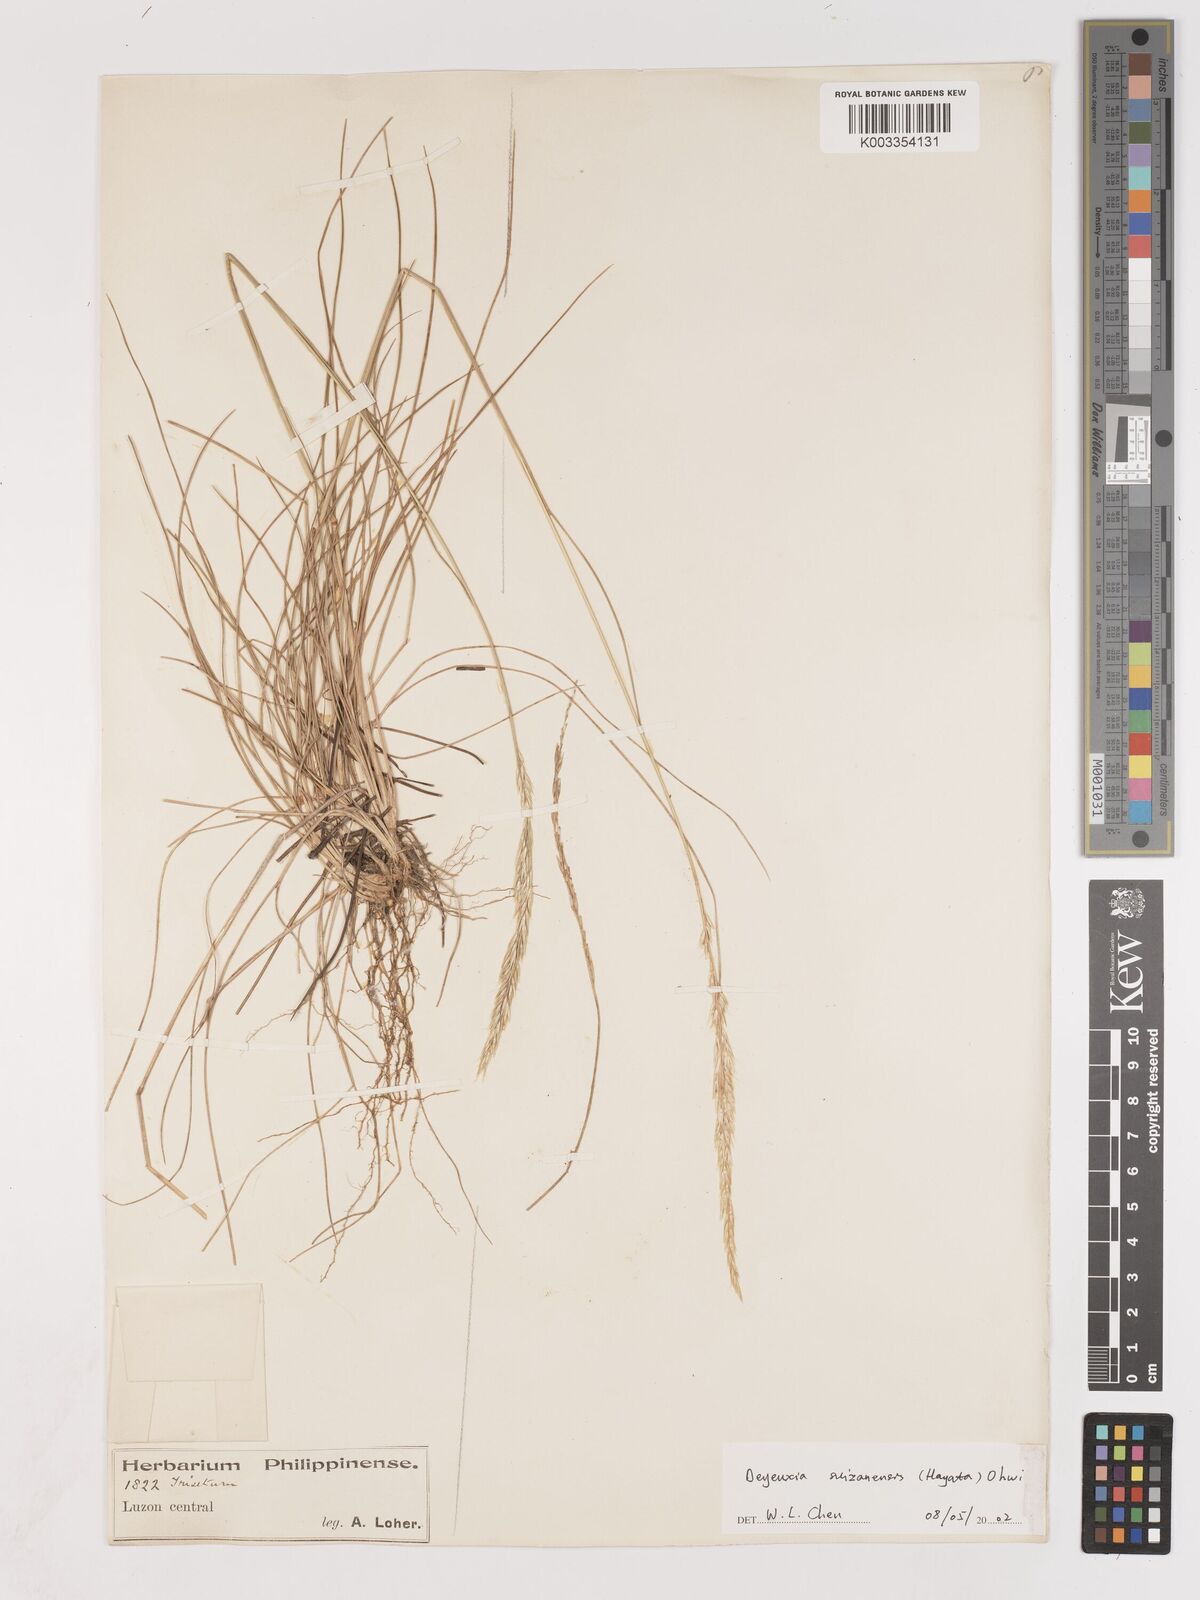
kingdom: Plantae
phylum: Tracheophyta
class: Liliopsida
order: Poales
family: Poaceae
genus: Calamagrostis
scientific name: Calamagrostis filifolia
